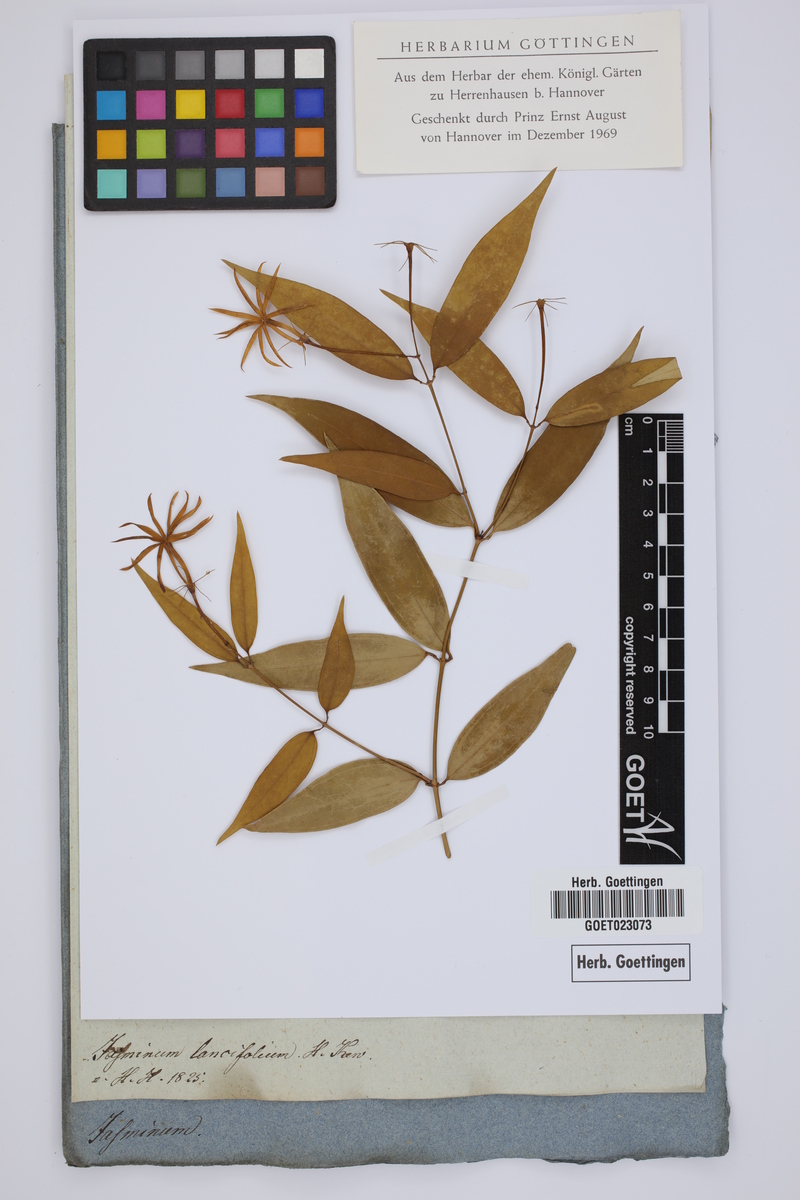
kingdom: Plantae
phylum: Tracheophyta
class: Magnoliopsida
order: Lamiales
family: Oleaceae
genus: Jasminum
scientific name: Jasminum elongatum
